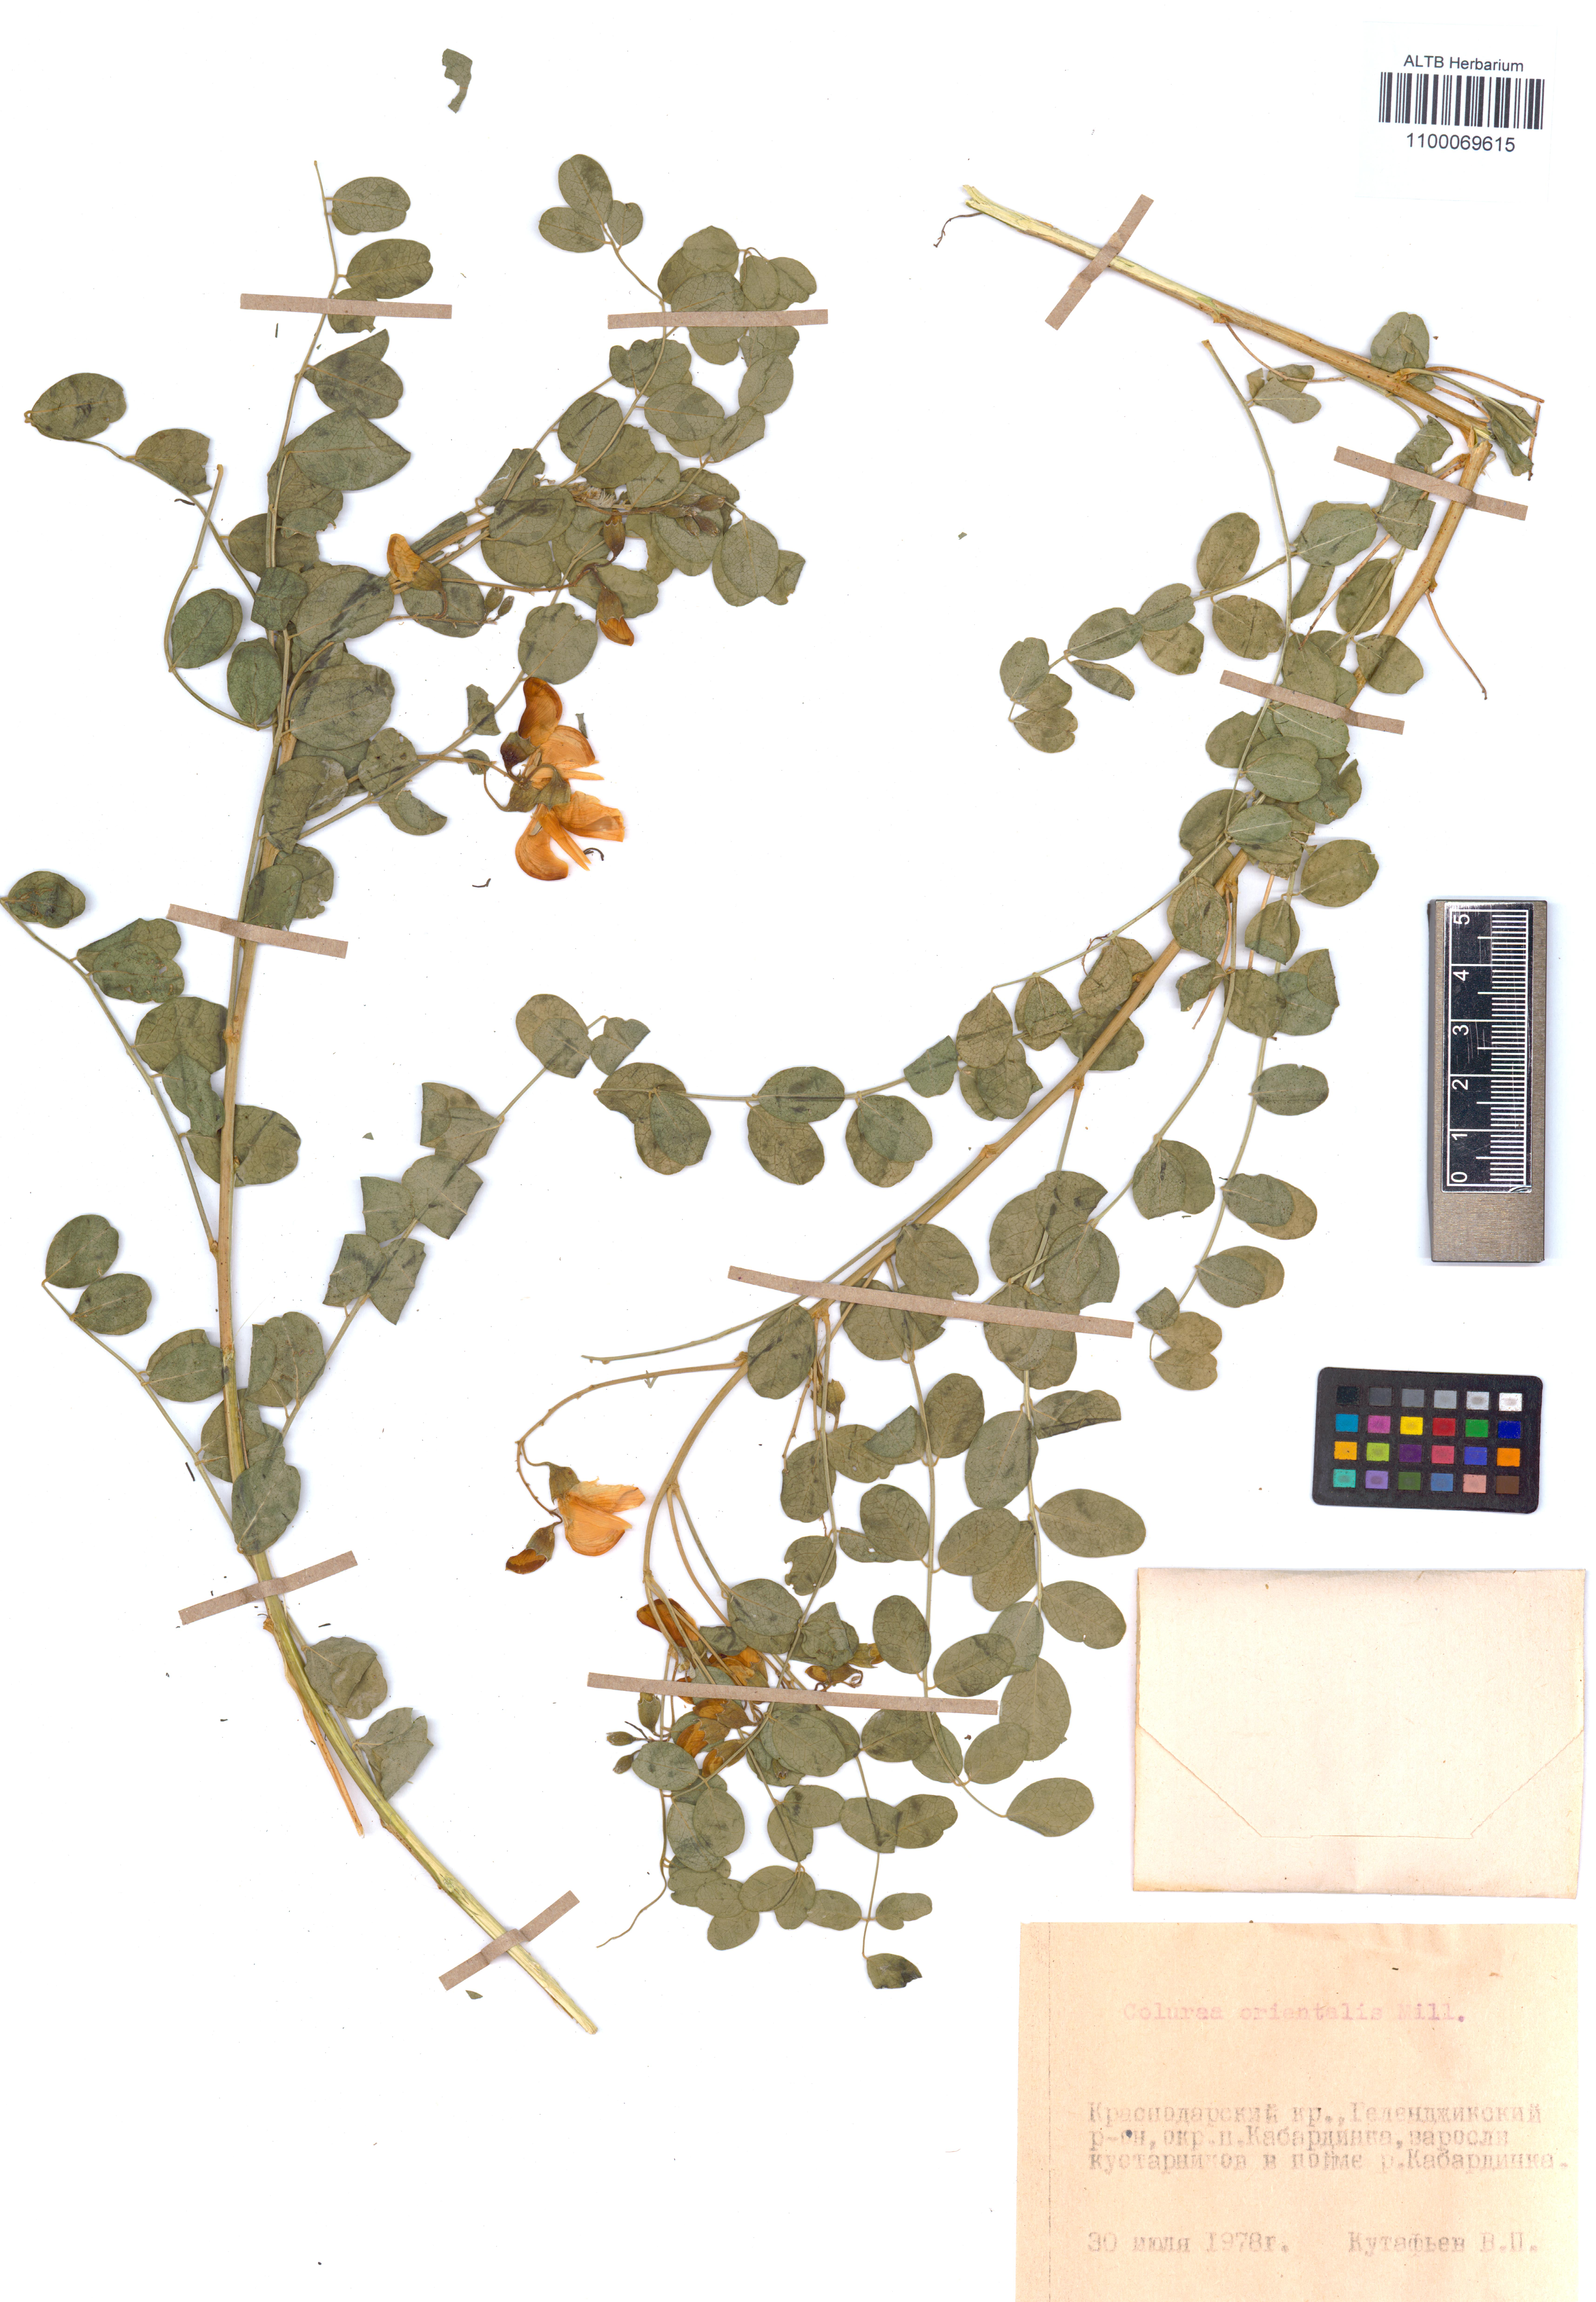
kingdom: Plantae
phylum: Tracheophyta
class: Magnoliopsida
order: Fabales
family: Fabaceae
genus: Colutea
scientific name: Colutea orientalis
